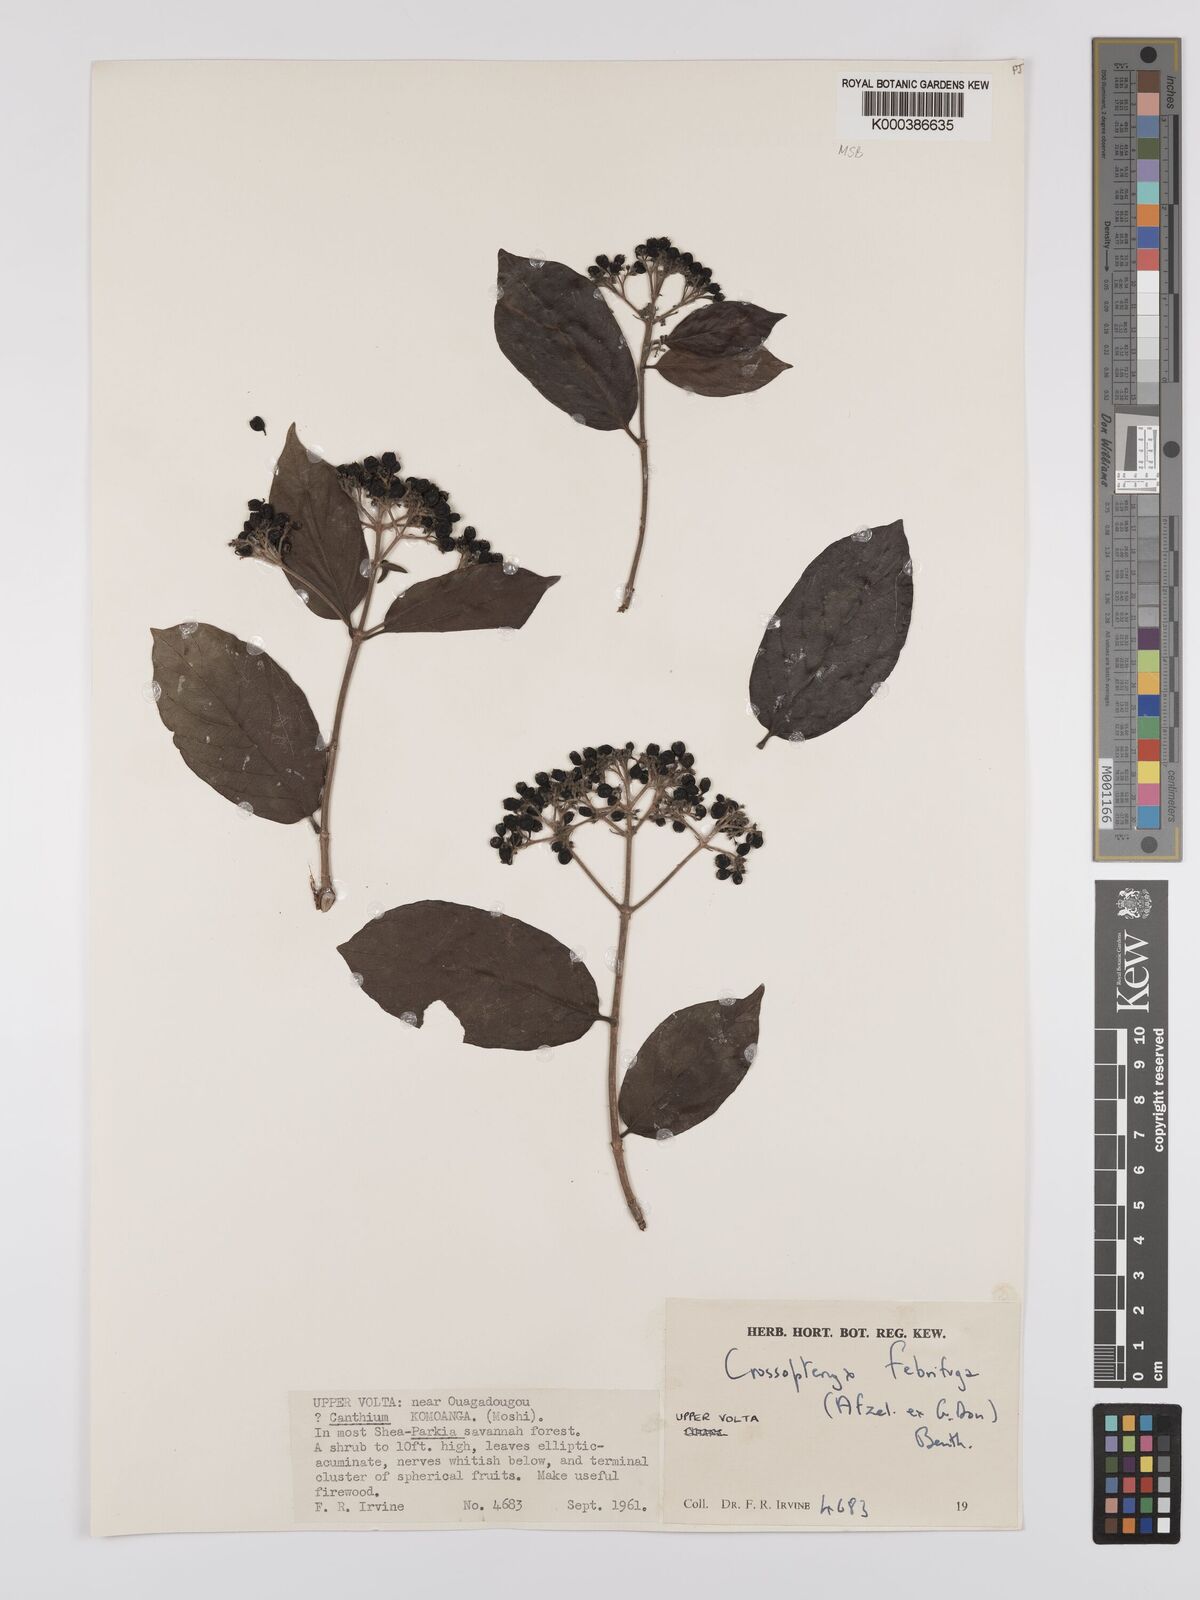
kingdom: Plantae
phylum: Tracheophyta
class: Magnoliopsida
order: Gentianales
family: Rubiaceae
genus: Crossopteryx
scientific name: Crossopteryx febrifuga
